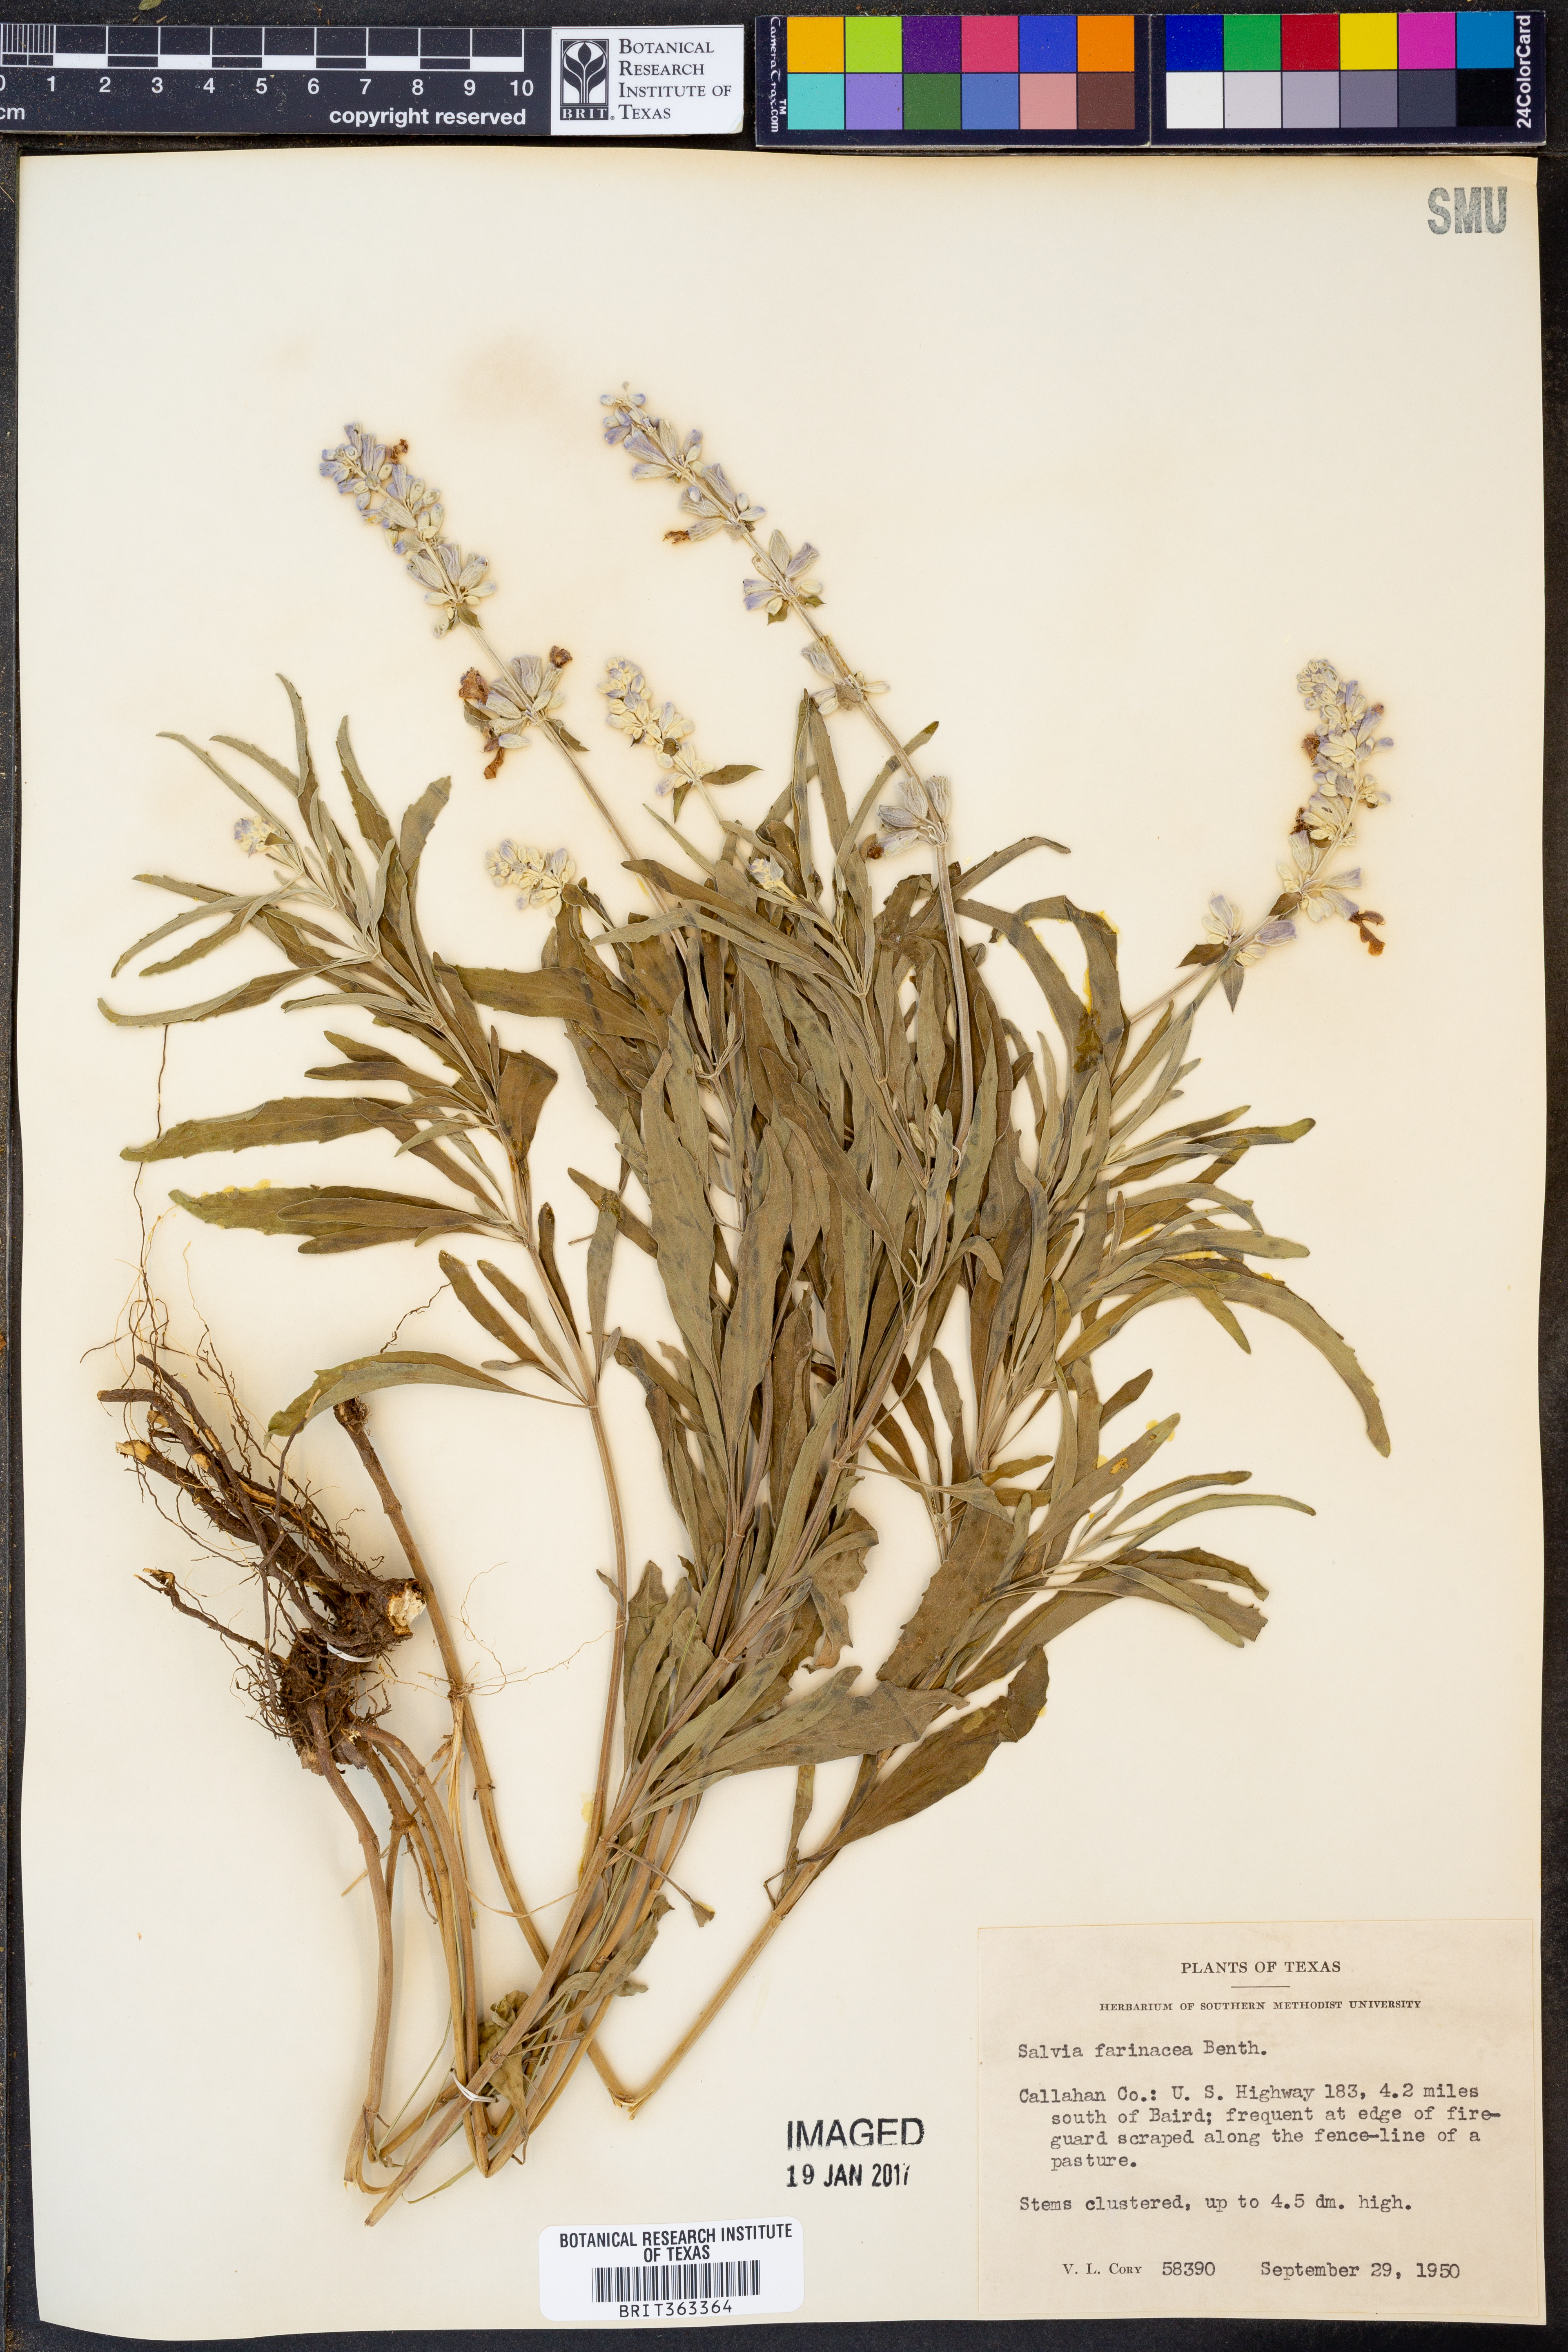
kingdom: Plantae
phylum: Tracheophyta
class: Magnoliopsida
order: Lamiales
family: Lamiaceae
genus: Salvia
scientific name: Salvia farinacea
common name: Mealy sage
